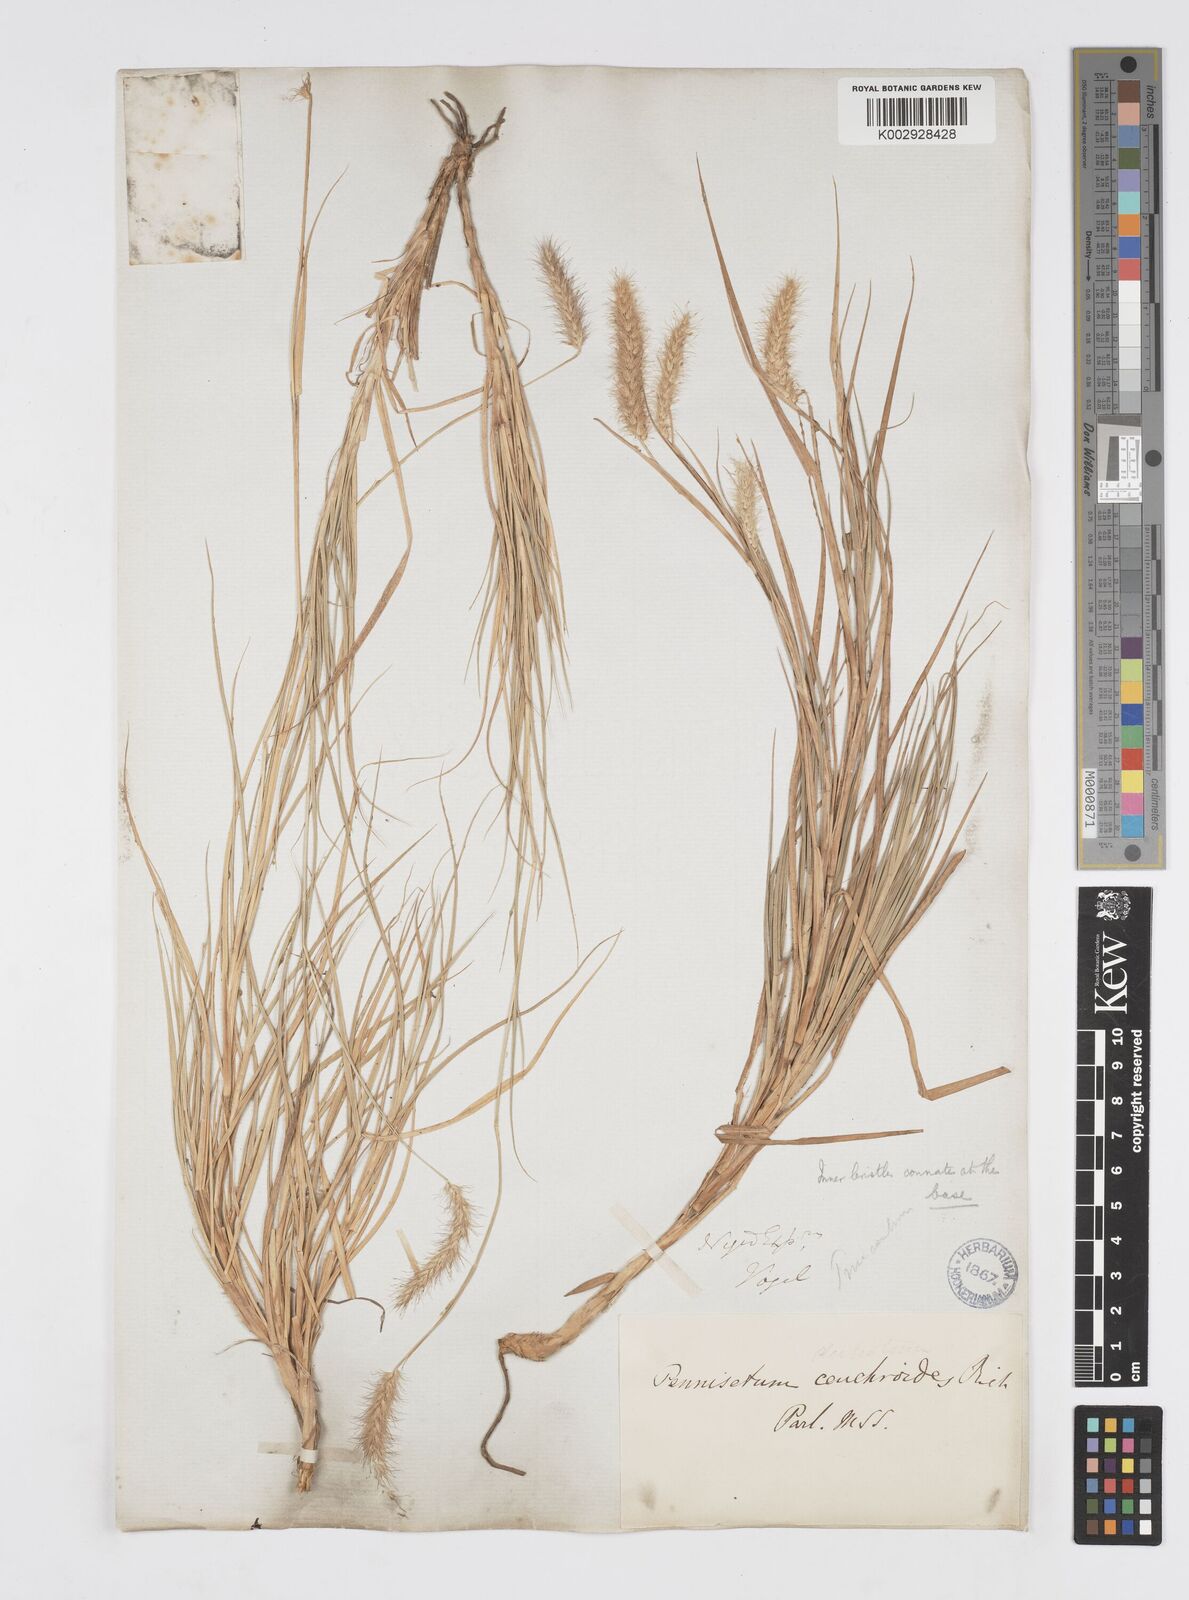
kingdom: Plantae
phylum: Tracheophyta
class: Liliopsida
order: Poales
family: Poaceae
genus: Cenchrus
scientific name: Cenchrus ciliaris
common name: Buffelgrass
